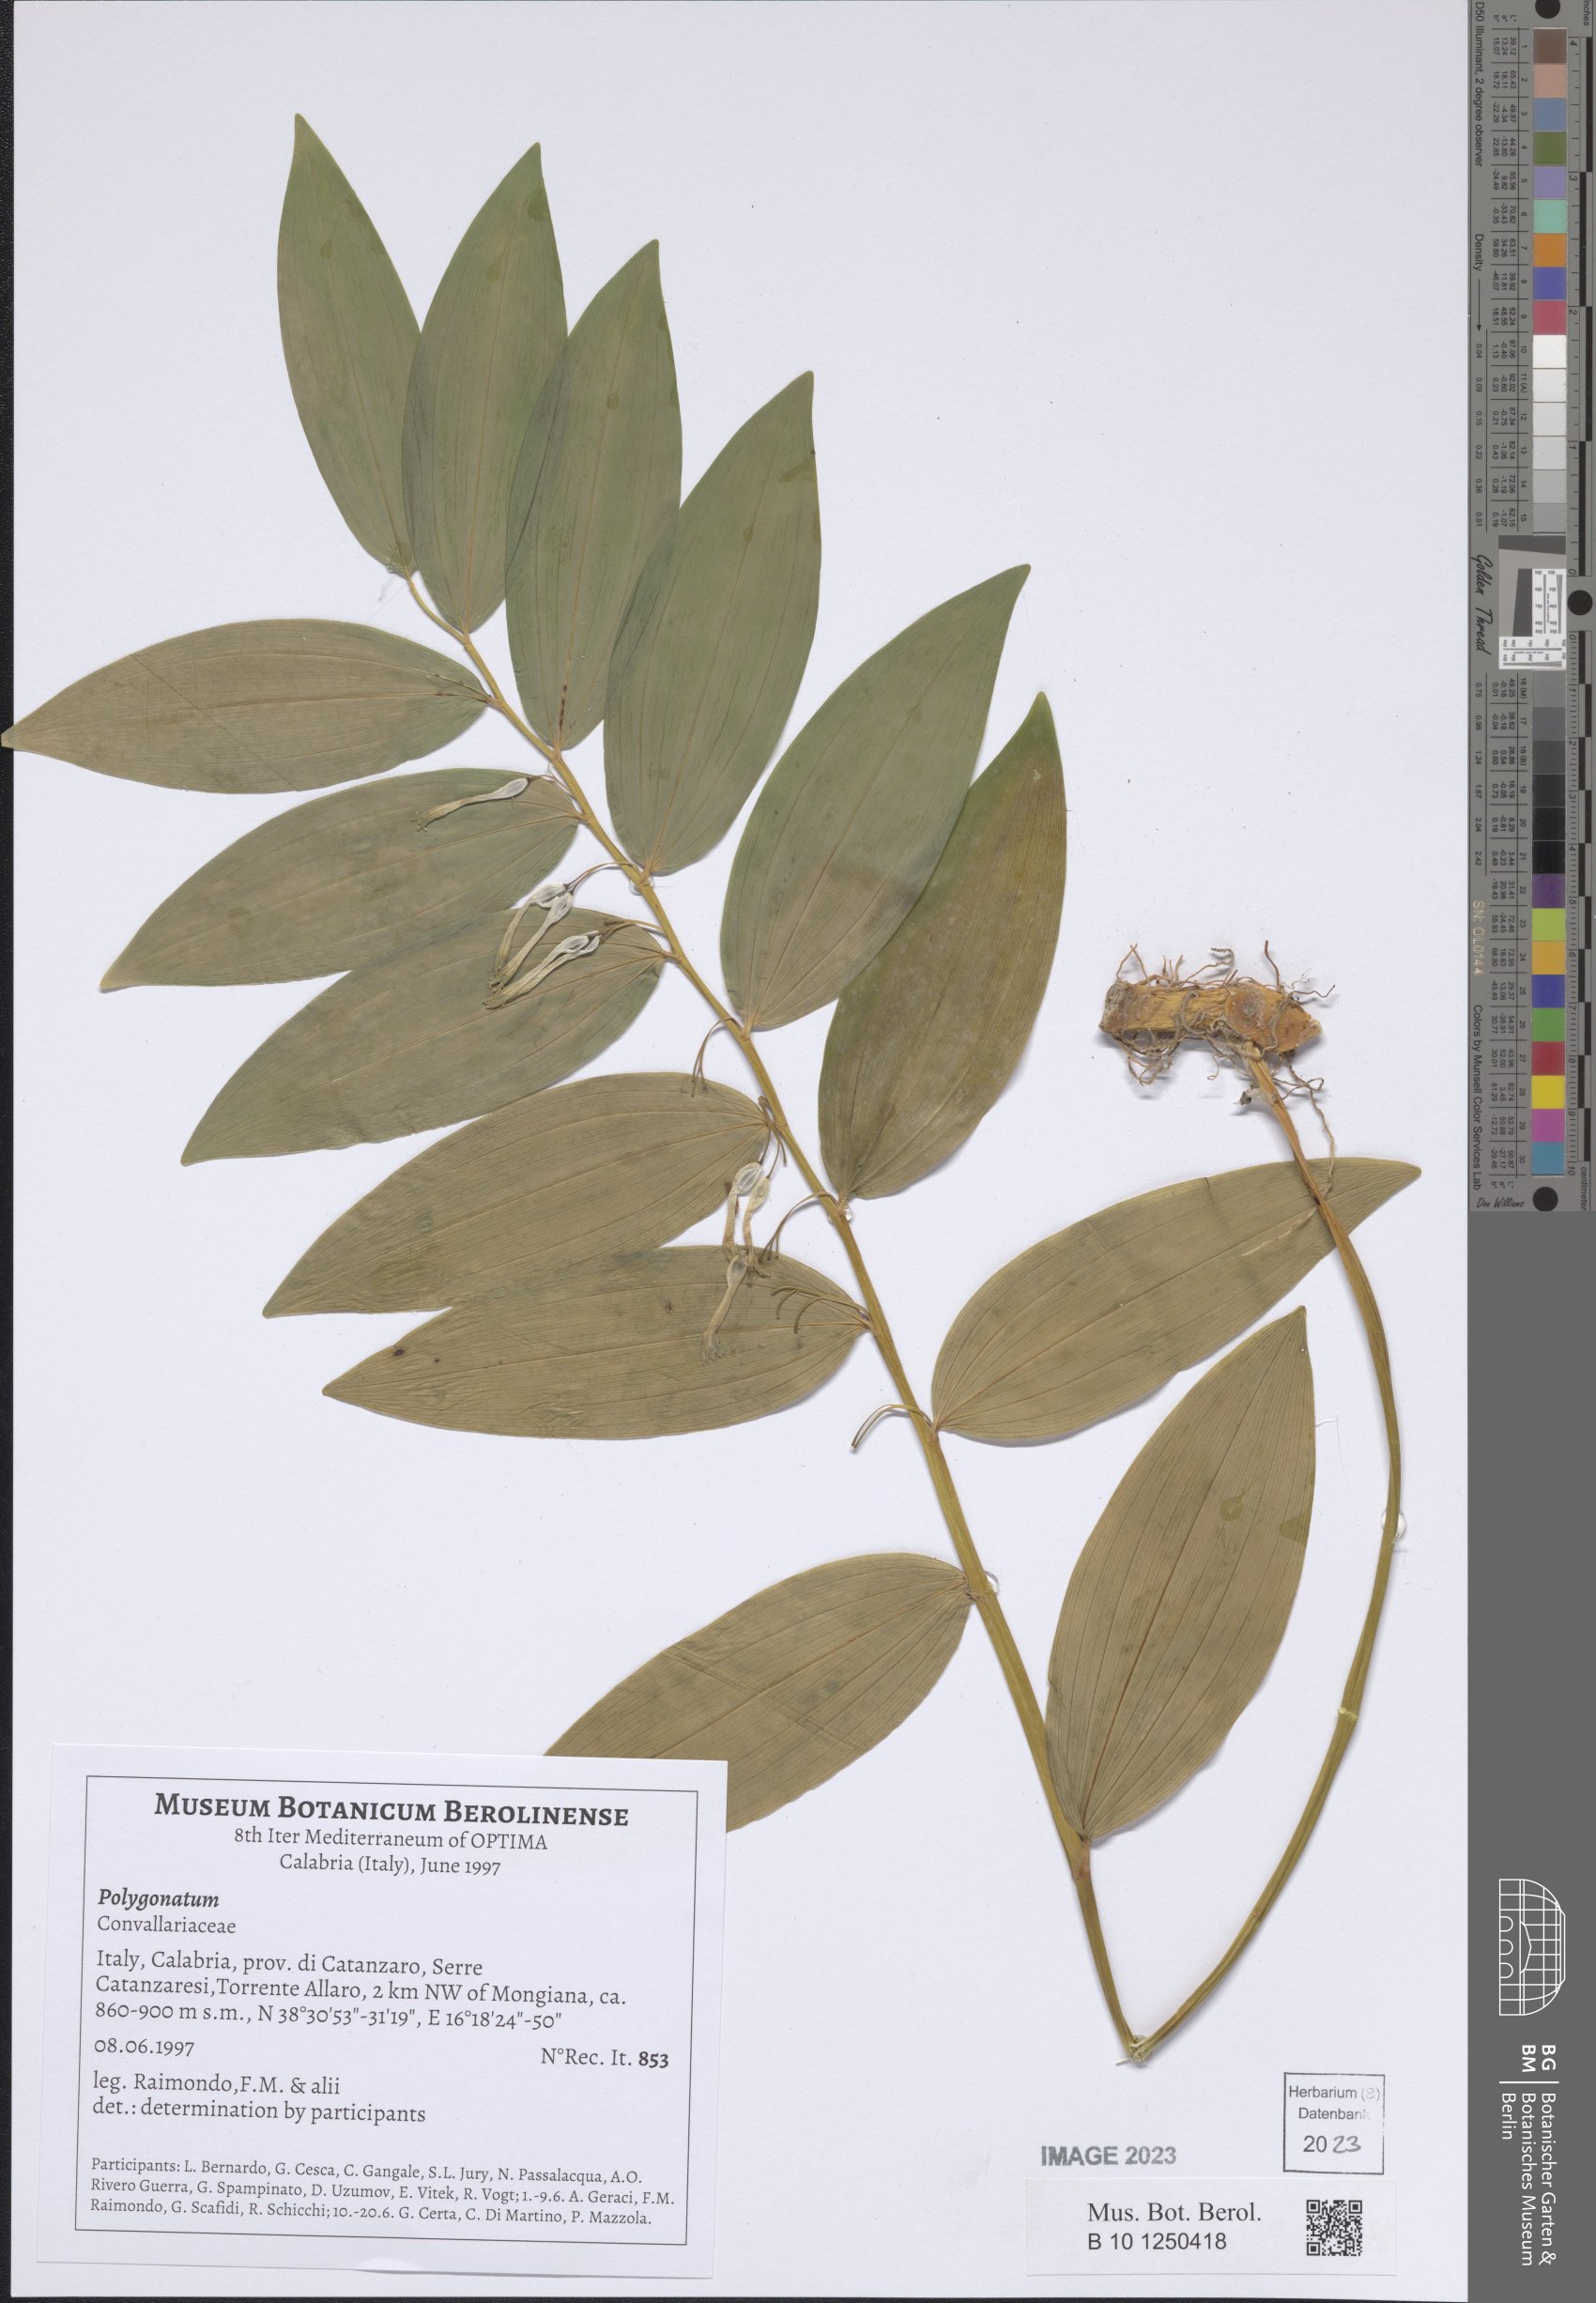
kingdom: Plantae
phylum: Tracheophyta
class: Liliopsida
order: Asparagales
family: Asparagaceae
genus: Polygonatum
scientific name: Polygonatum
